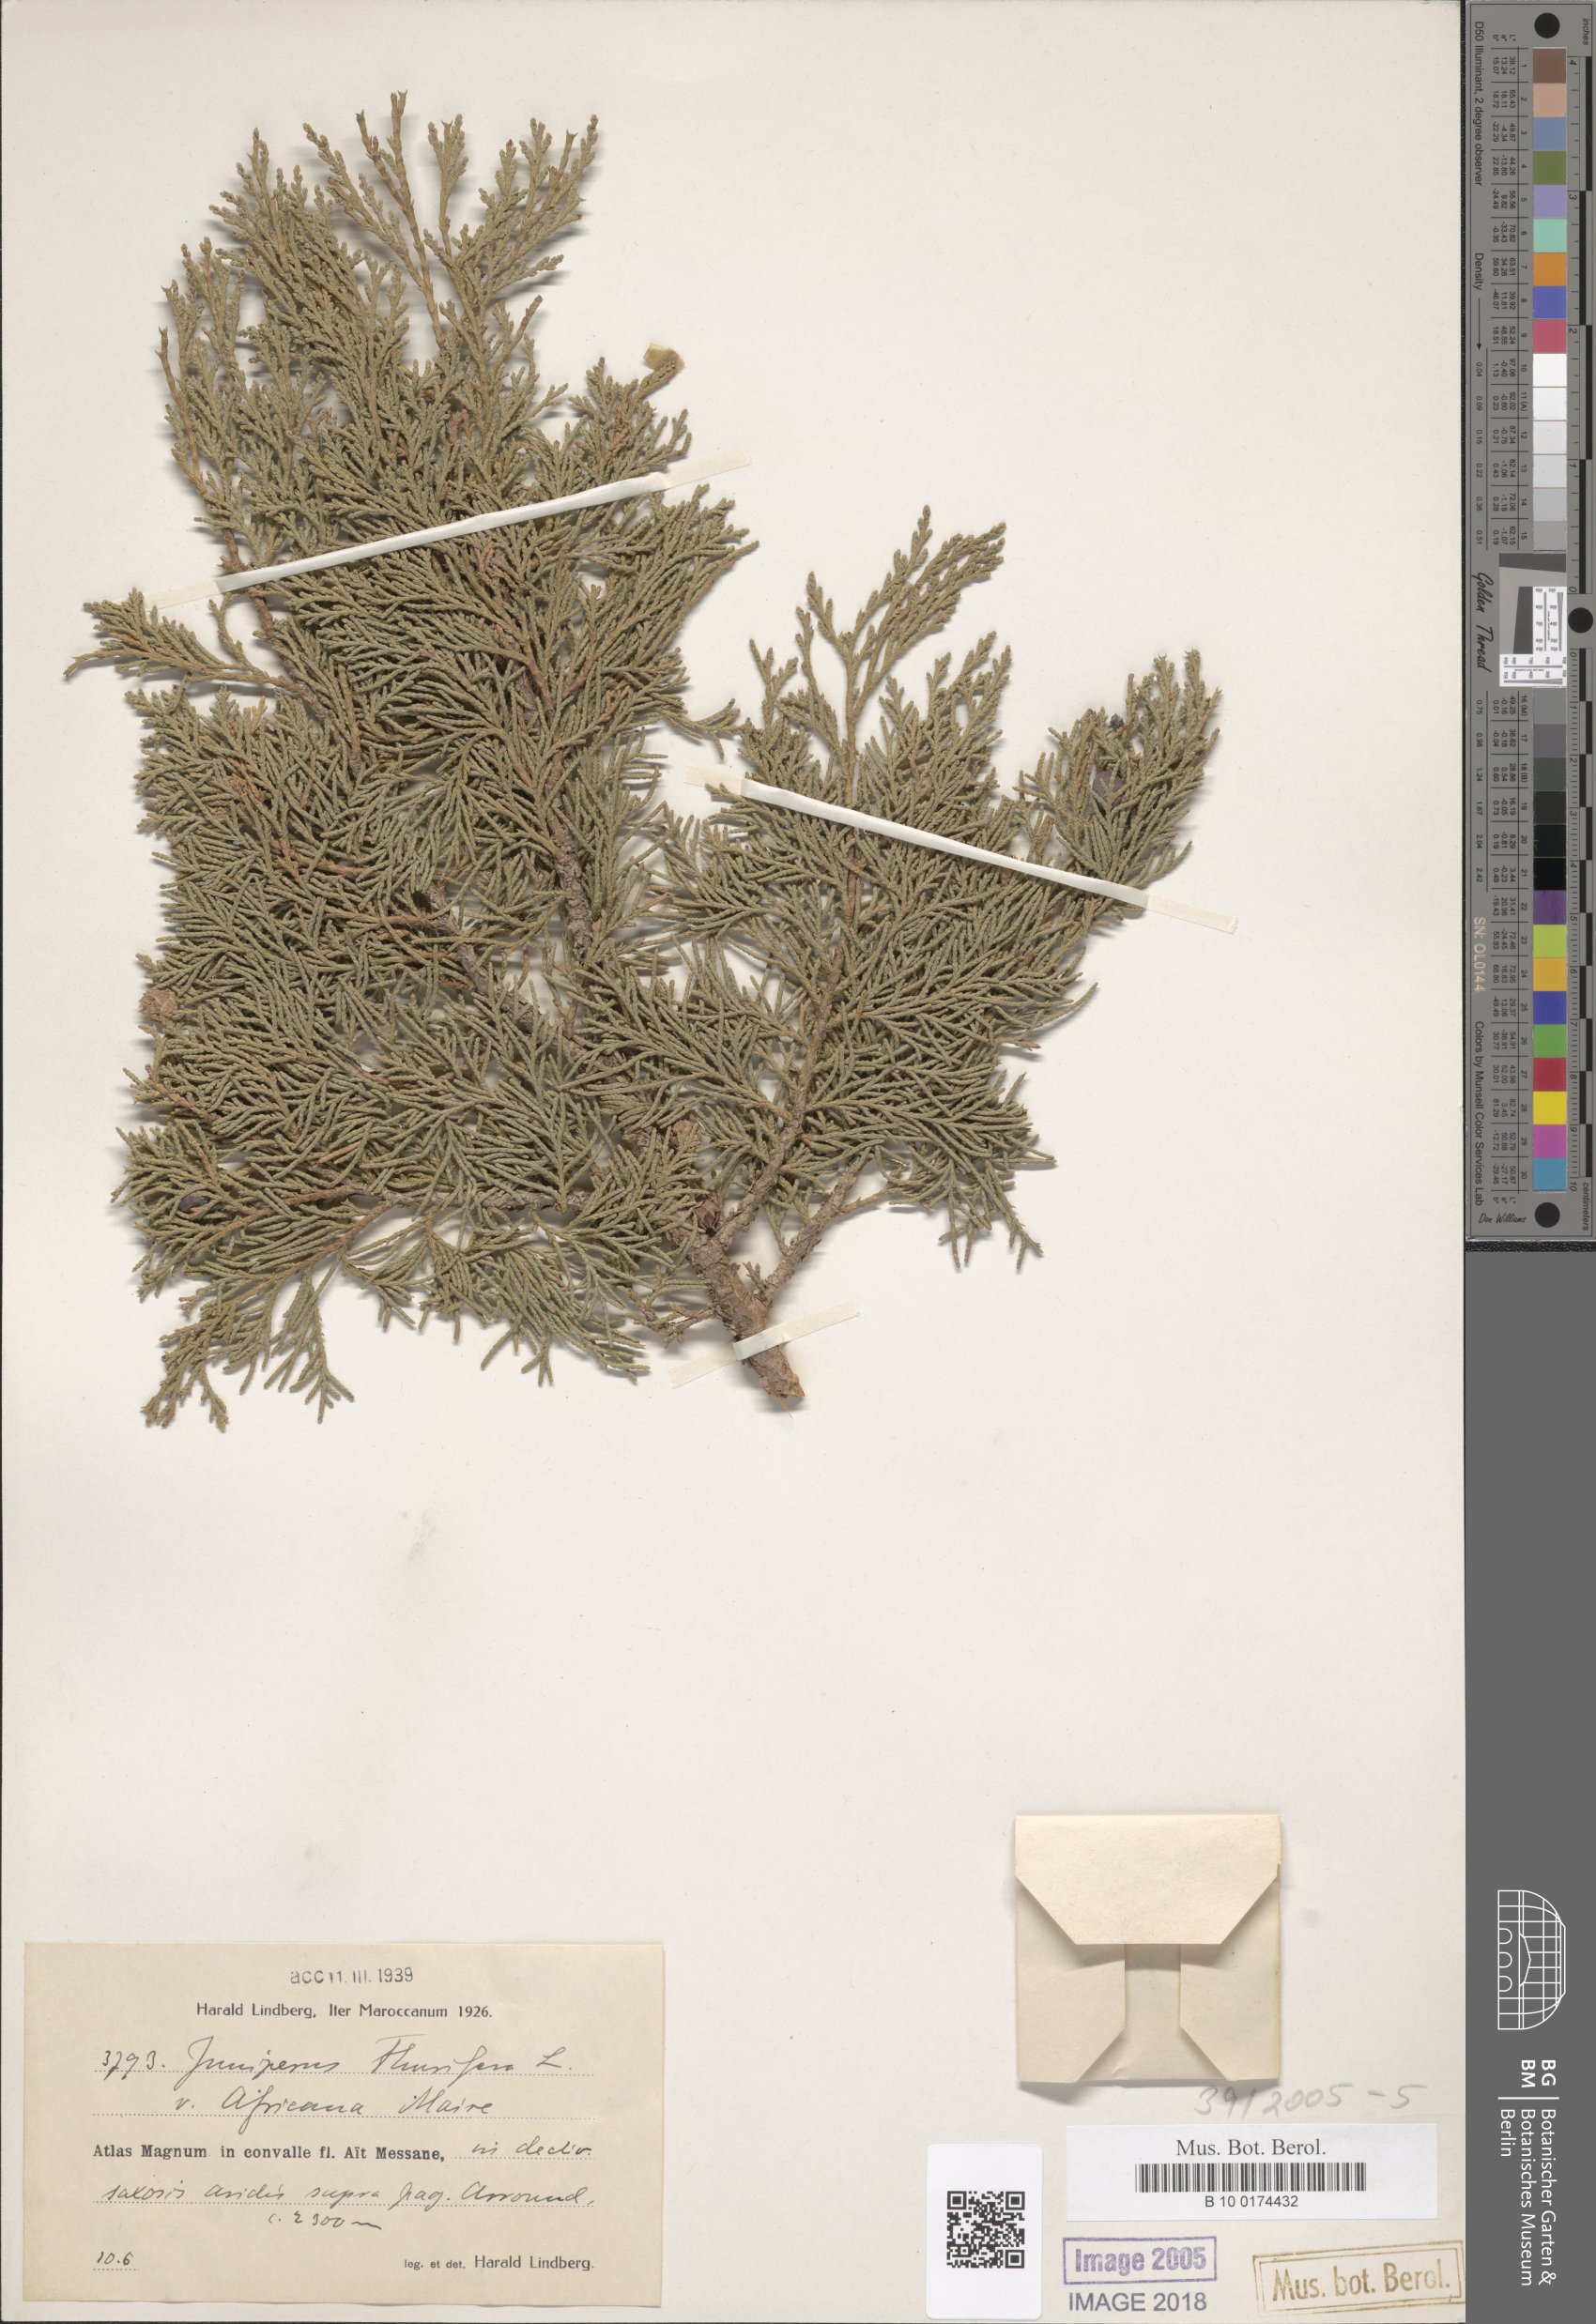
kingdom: Plantae
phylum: Tracheophyta
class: Pinopsida
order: Pinales
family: Cupressaceae
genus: Juniperus
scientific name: Juniperus thurifera
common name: Incense juniper
